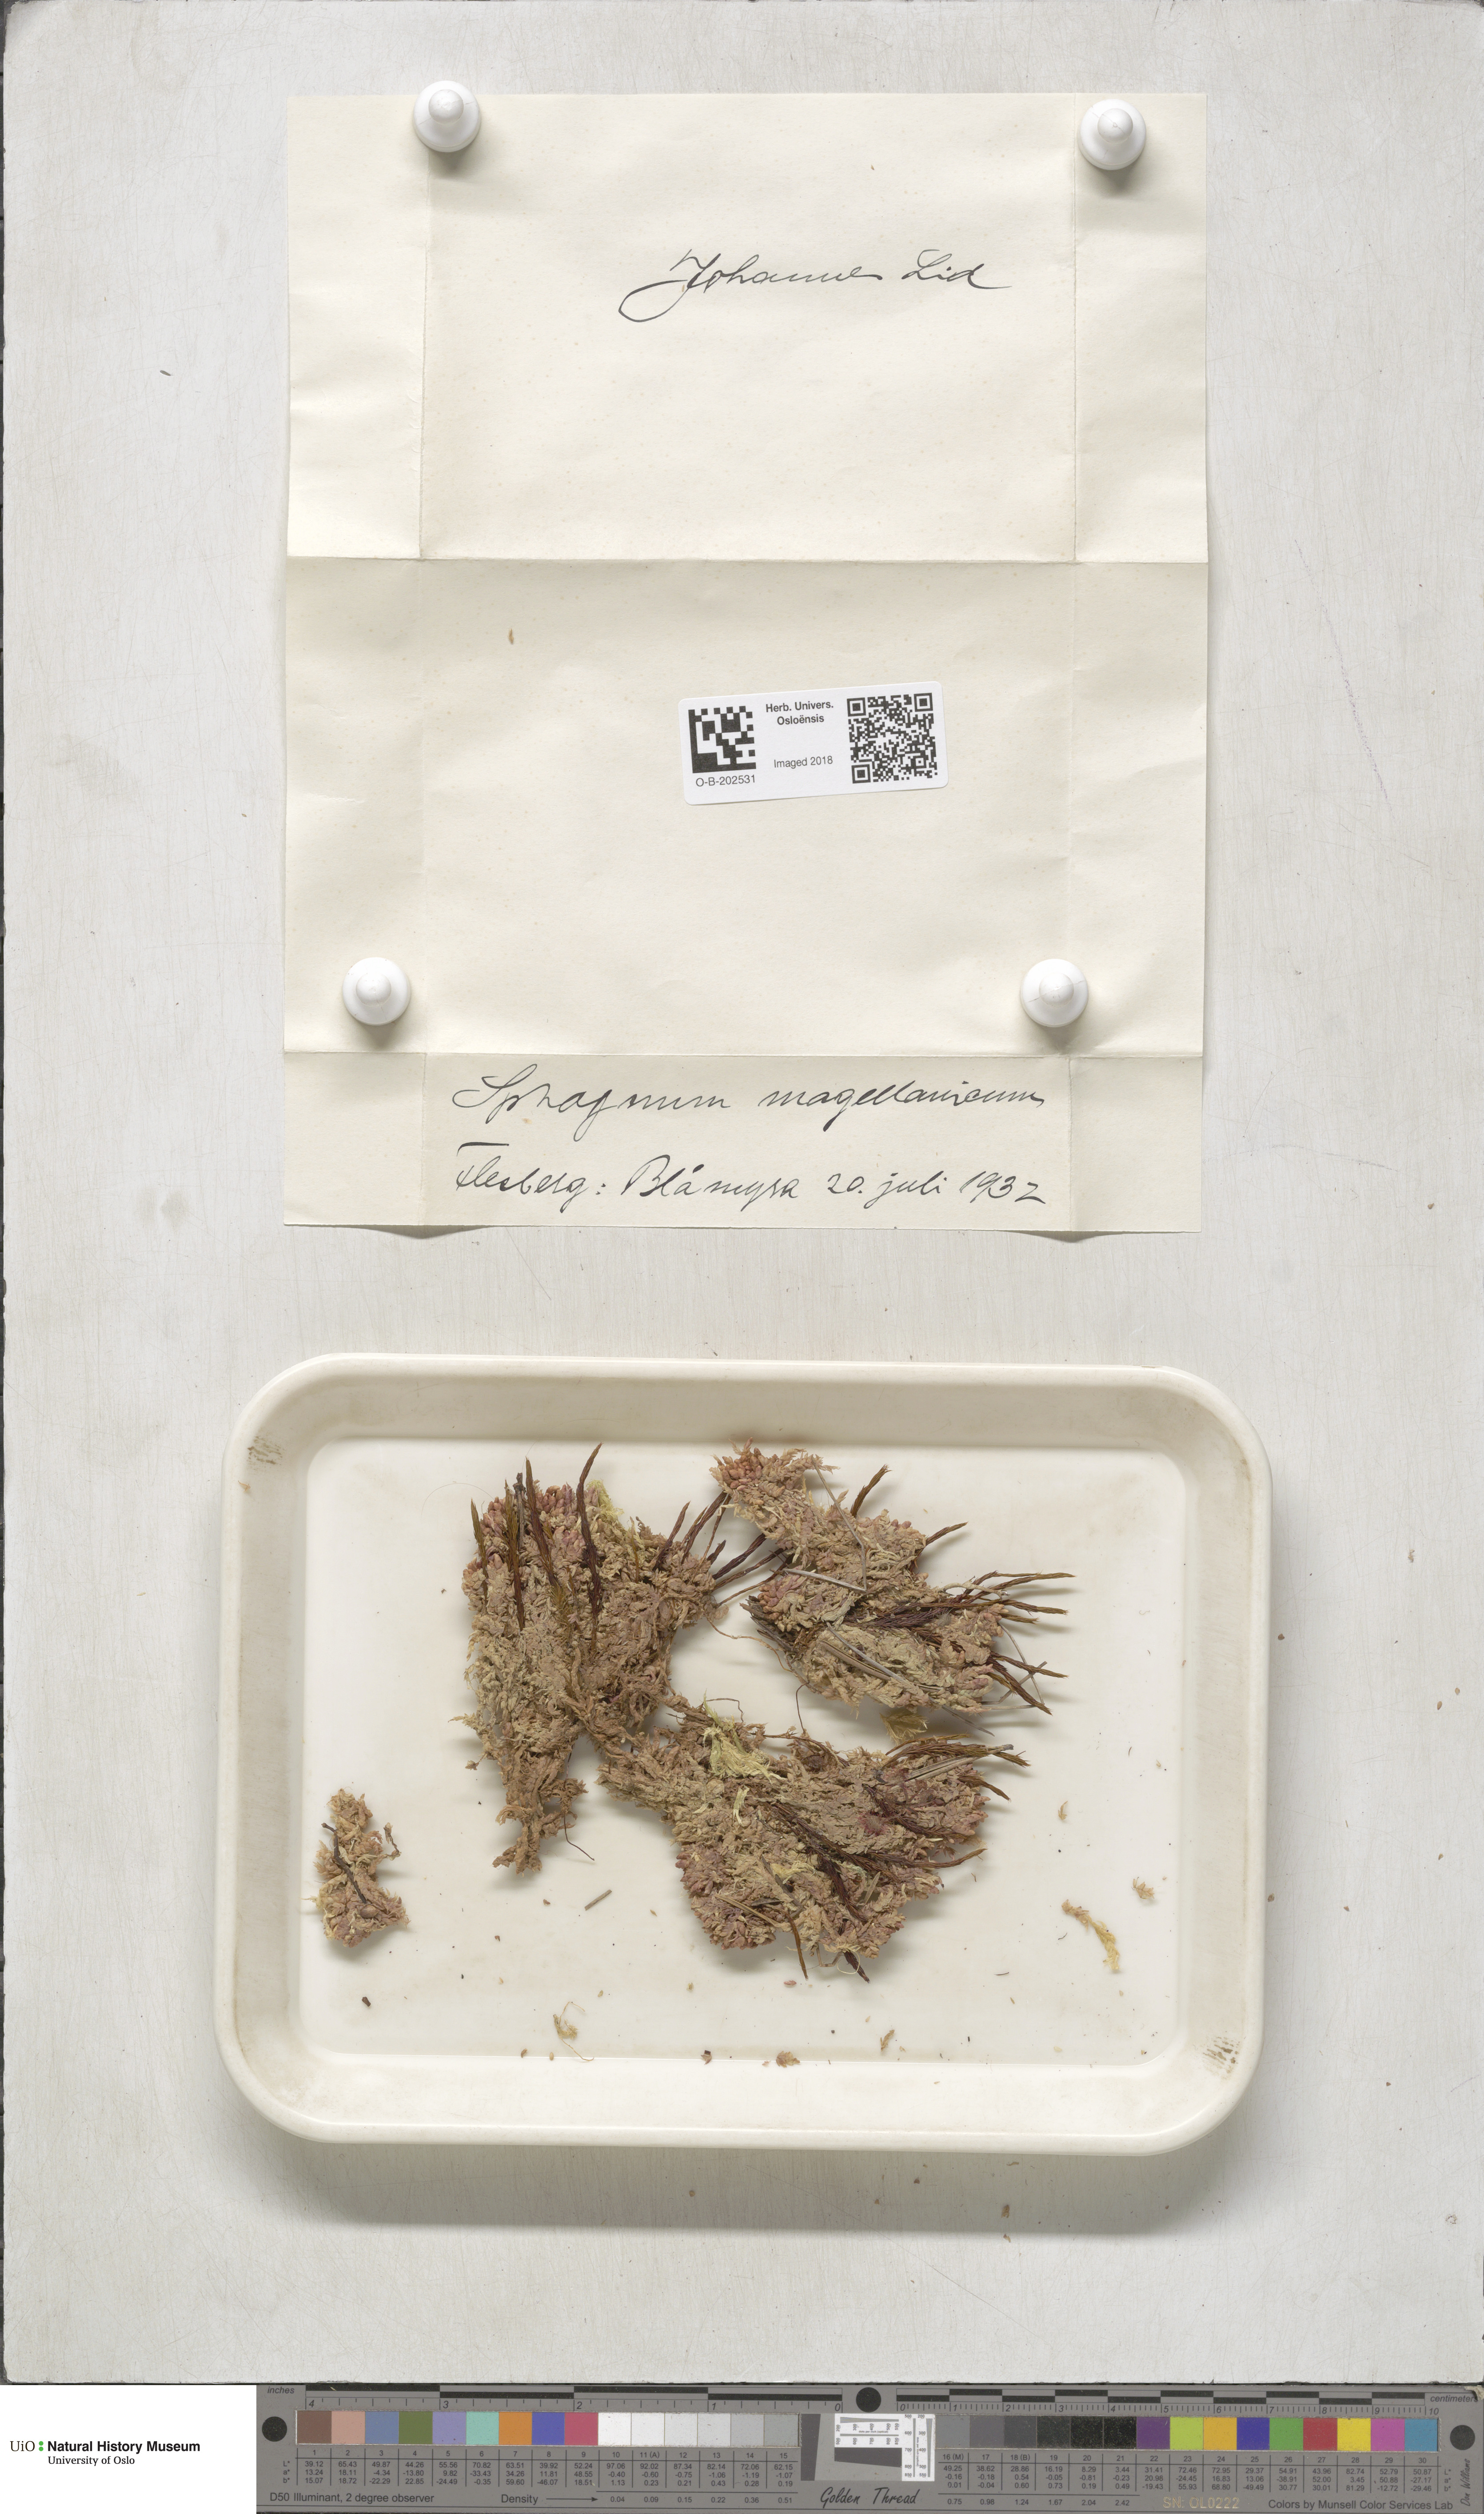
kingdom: Plantae
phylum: Bryophyta
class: Sphagnopsida
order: Sphagnales
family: Sphagnaceae
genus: Sphagnum
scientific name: Sphagnum magellanicum
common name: Magellan's peat moss
